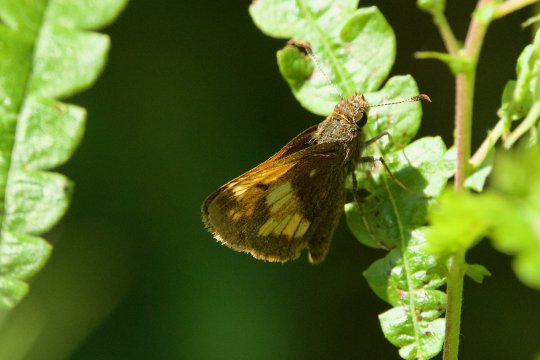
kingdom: Animalia
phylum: Arthropoda
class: Insecta
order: Lepidoptera
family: Hesperiidae
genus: Lon
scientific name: Lon hobomok
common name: Hobomok Skipper
